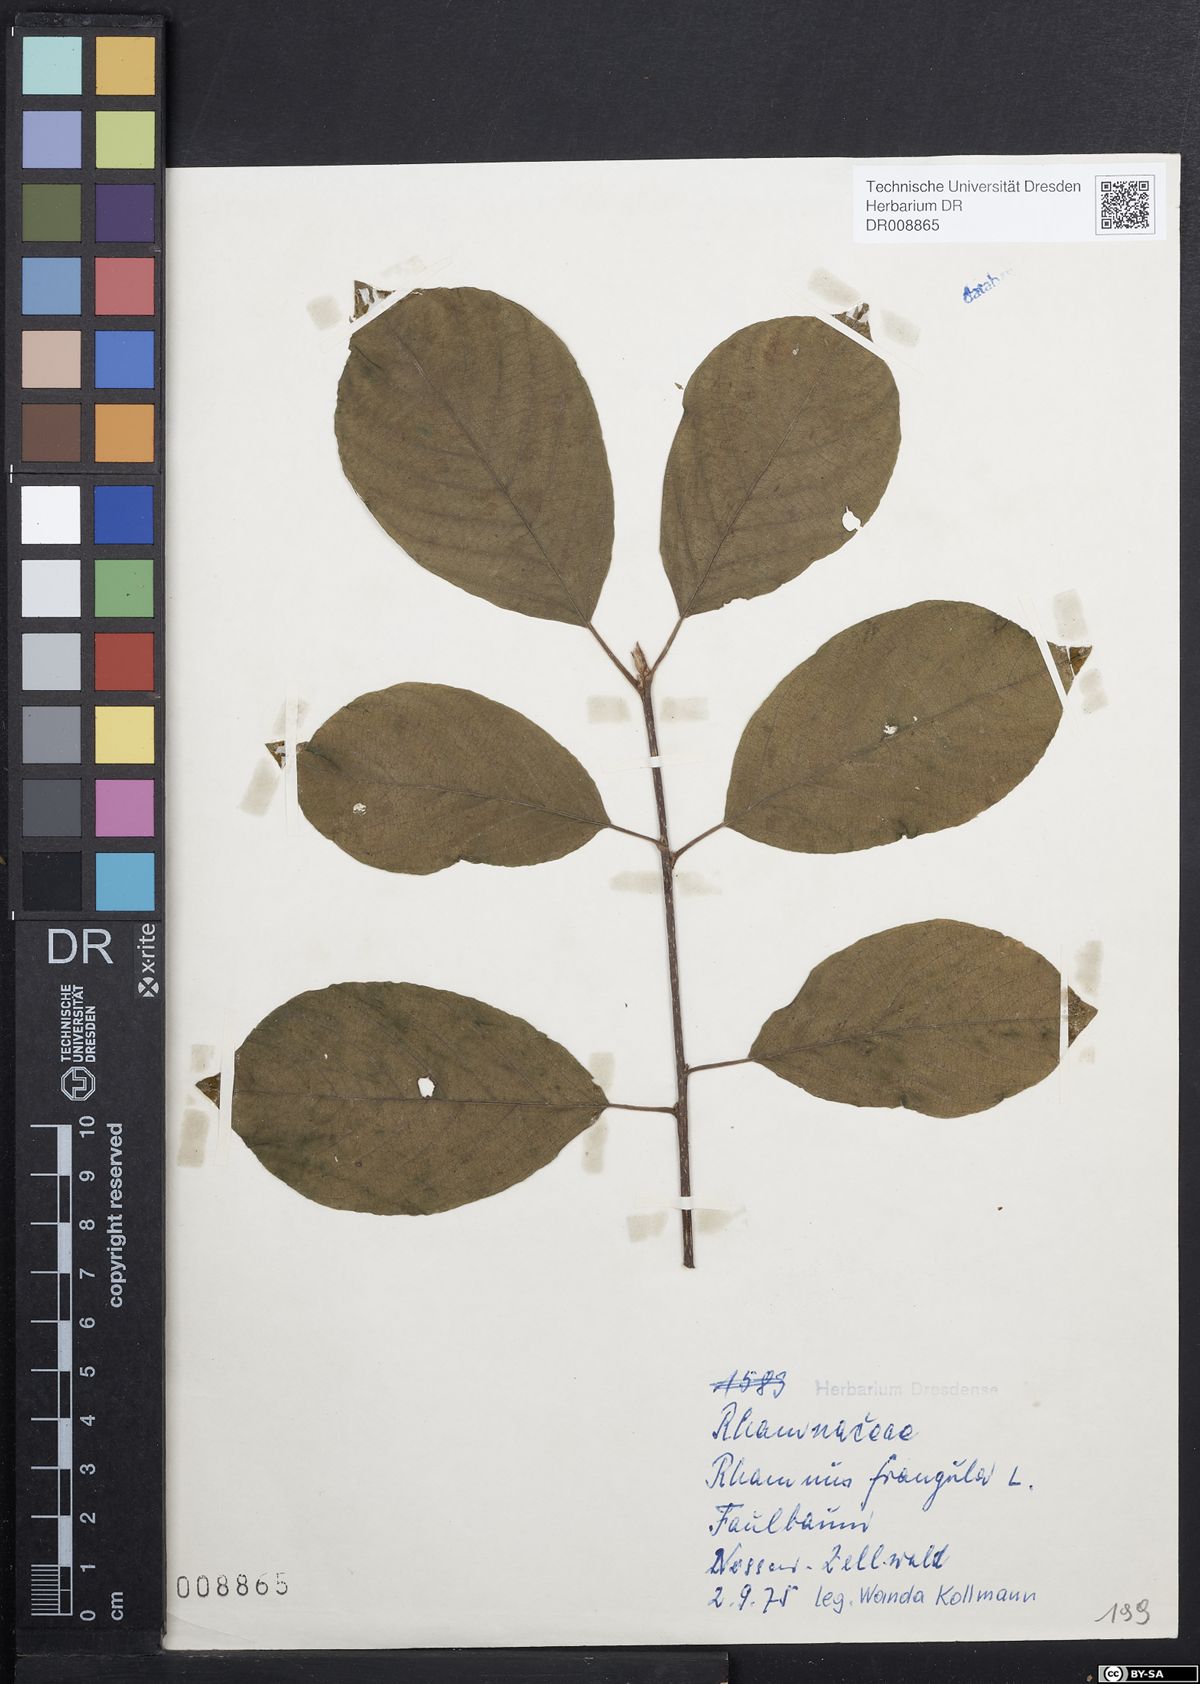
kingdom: Plantae
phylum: Tracheophyta
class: Magnoliopsida
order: Rosales
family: Rhamnaceae
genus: Frangula
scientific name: Frangula alnus
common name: Alder buckthorn
